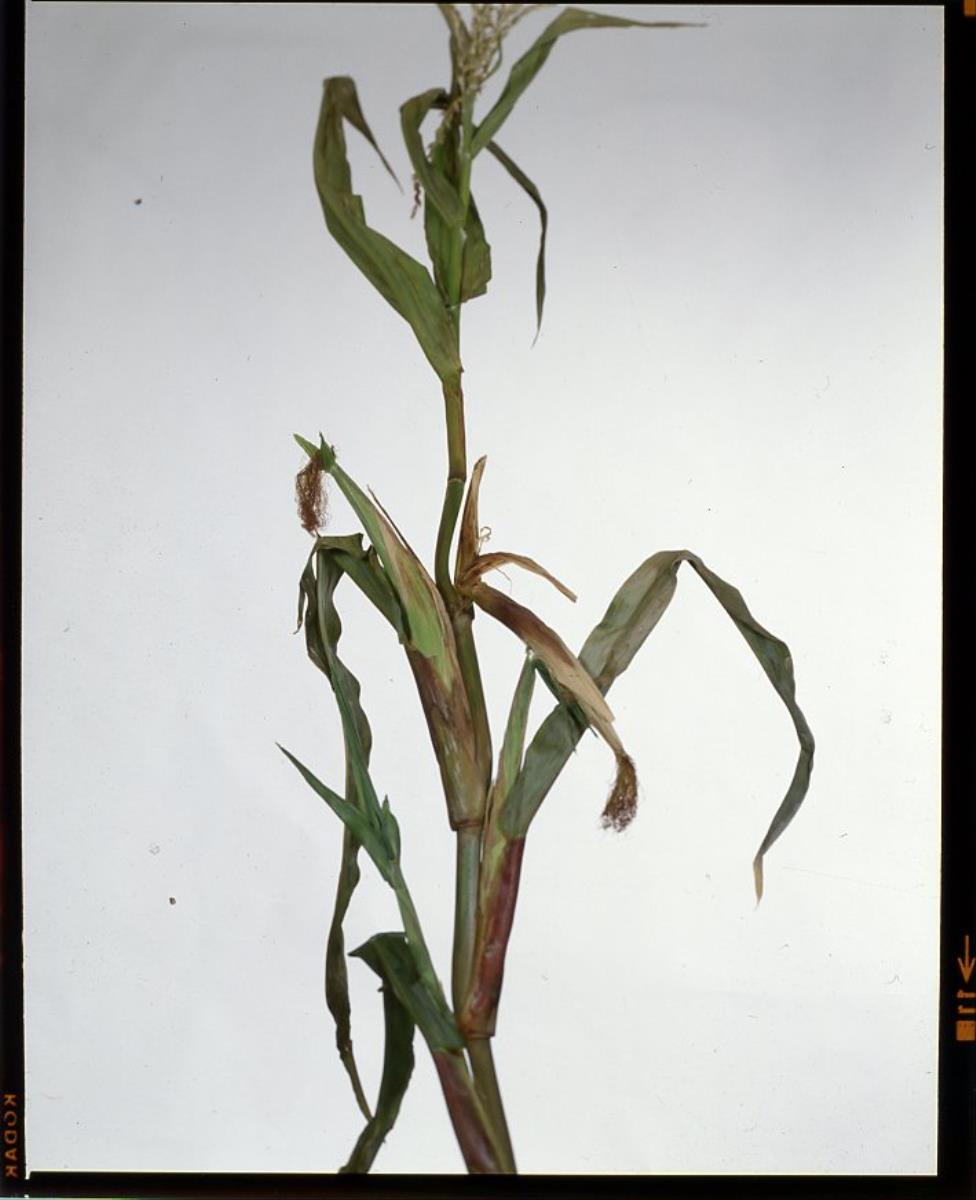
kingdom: Bacteria
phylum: Proteobacteria
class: Gammaproteobacteria
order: Enterobacterales
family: Enterobacteriaceae
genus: Dickeya
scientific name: Dickeya chrysanthemi
